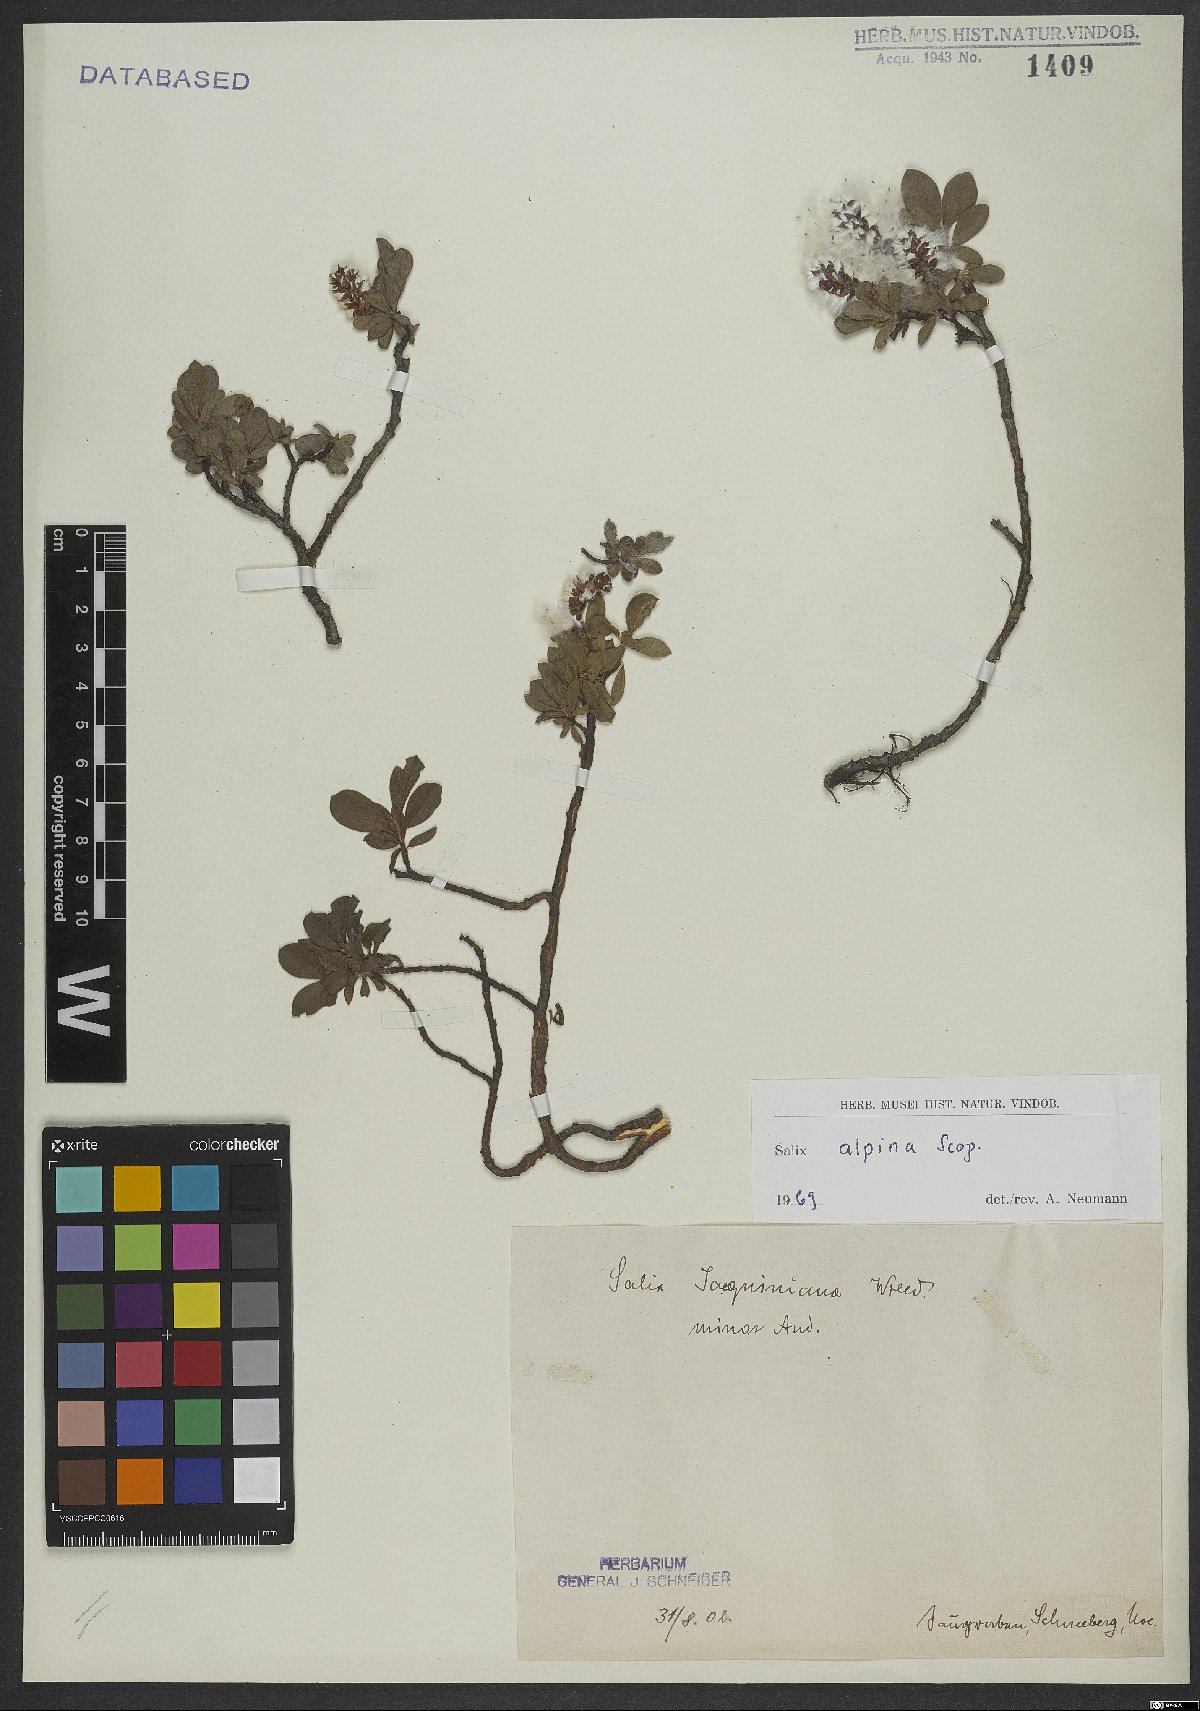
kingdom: Plantae
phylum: Tracheophyta
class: Magnoliopsida
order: Malpighiales
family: Salicaceae
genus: Salix
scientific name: Salix alpina
